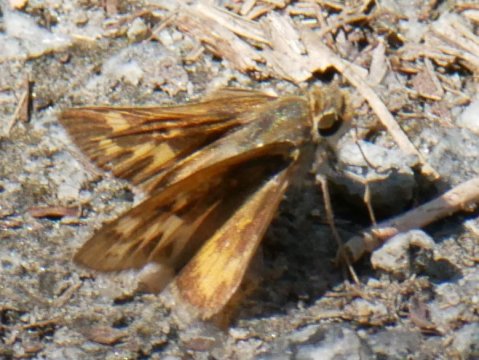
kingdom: Animalia
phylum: Arthropoda
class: Insecta
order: Lepidoptera
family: Hesperiidae
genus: Hylephila
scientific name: Hylephila phyleus
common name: Fiery Skipper
